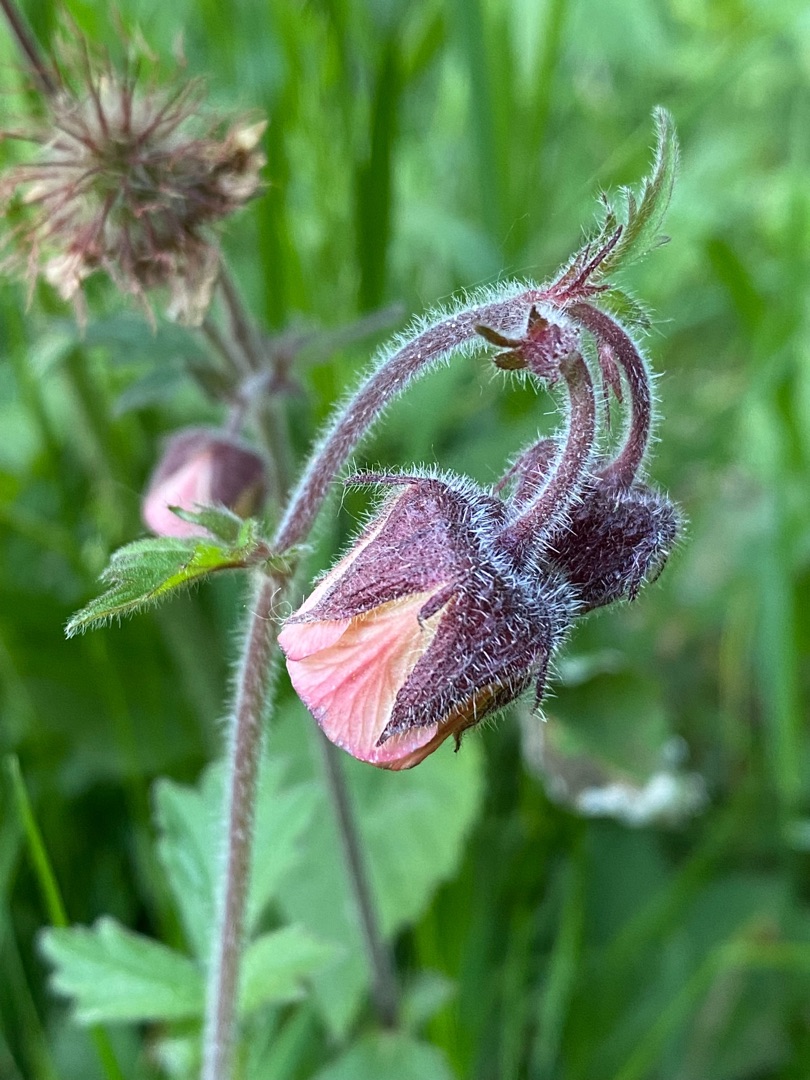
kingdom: Plantae
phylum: Tracheophyta
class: Magnoliopsida
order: Rosales
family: Rosaceae
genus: Geum
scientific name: Geum rivale
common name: Eng-nellikerod
